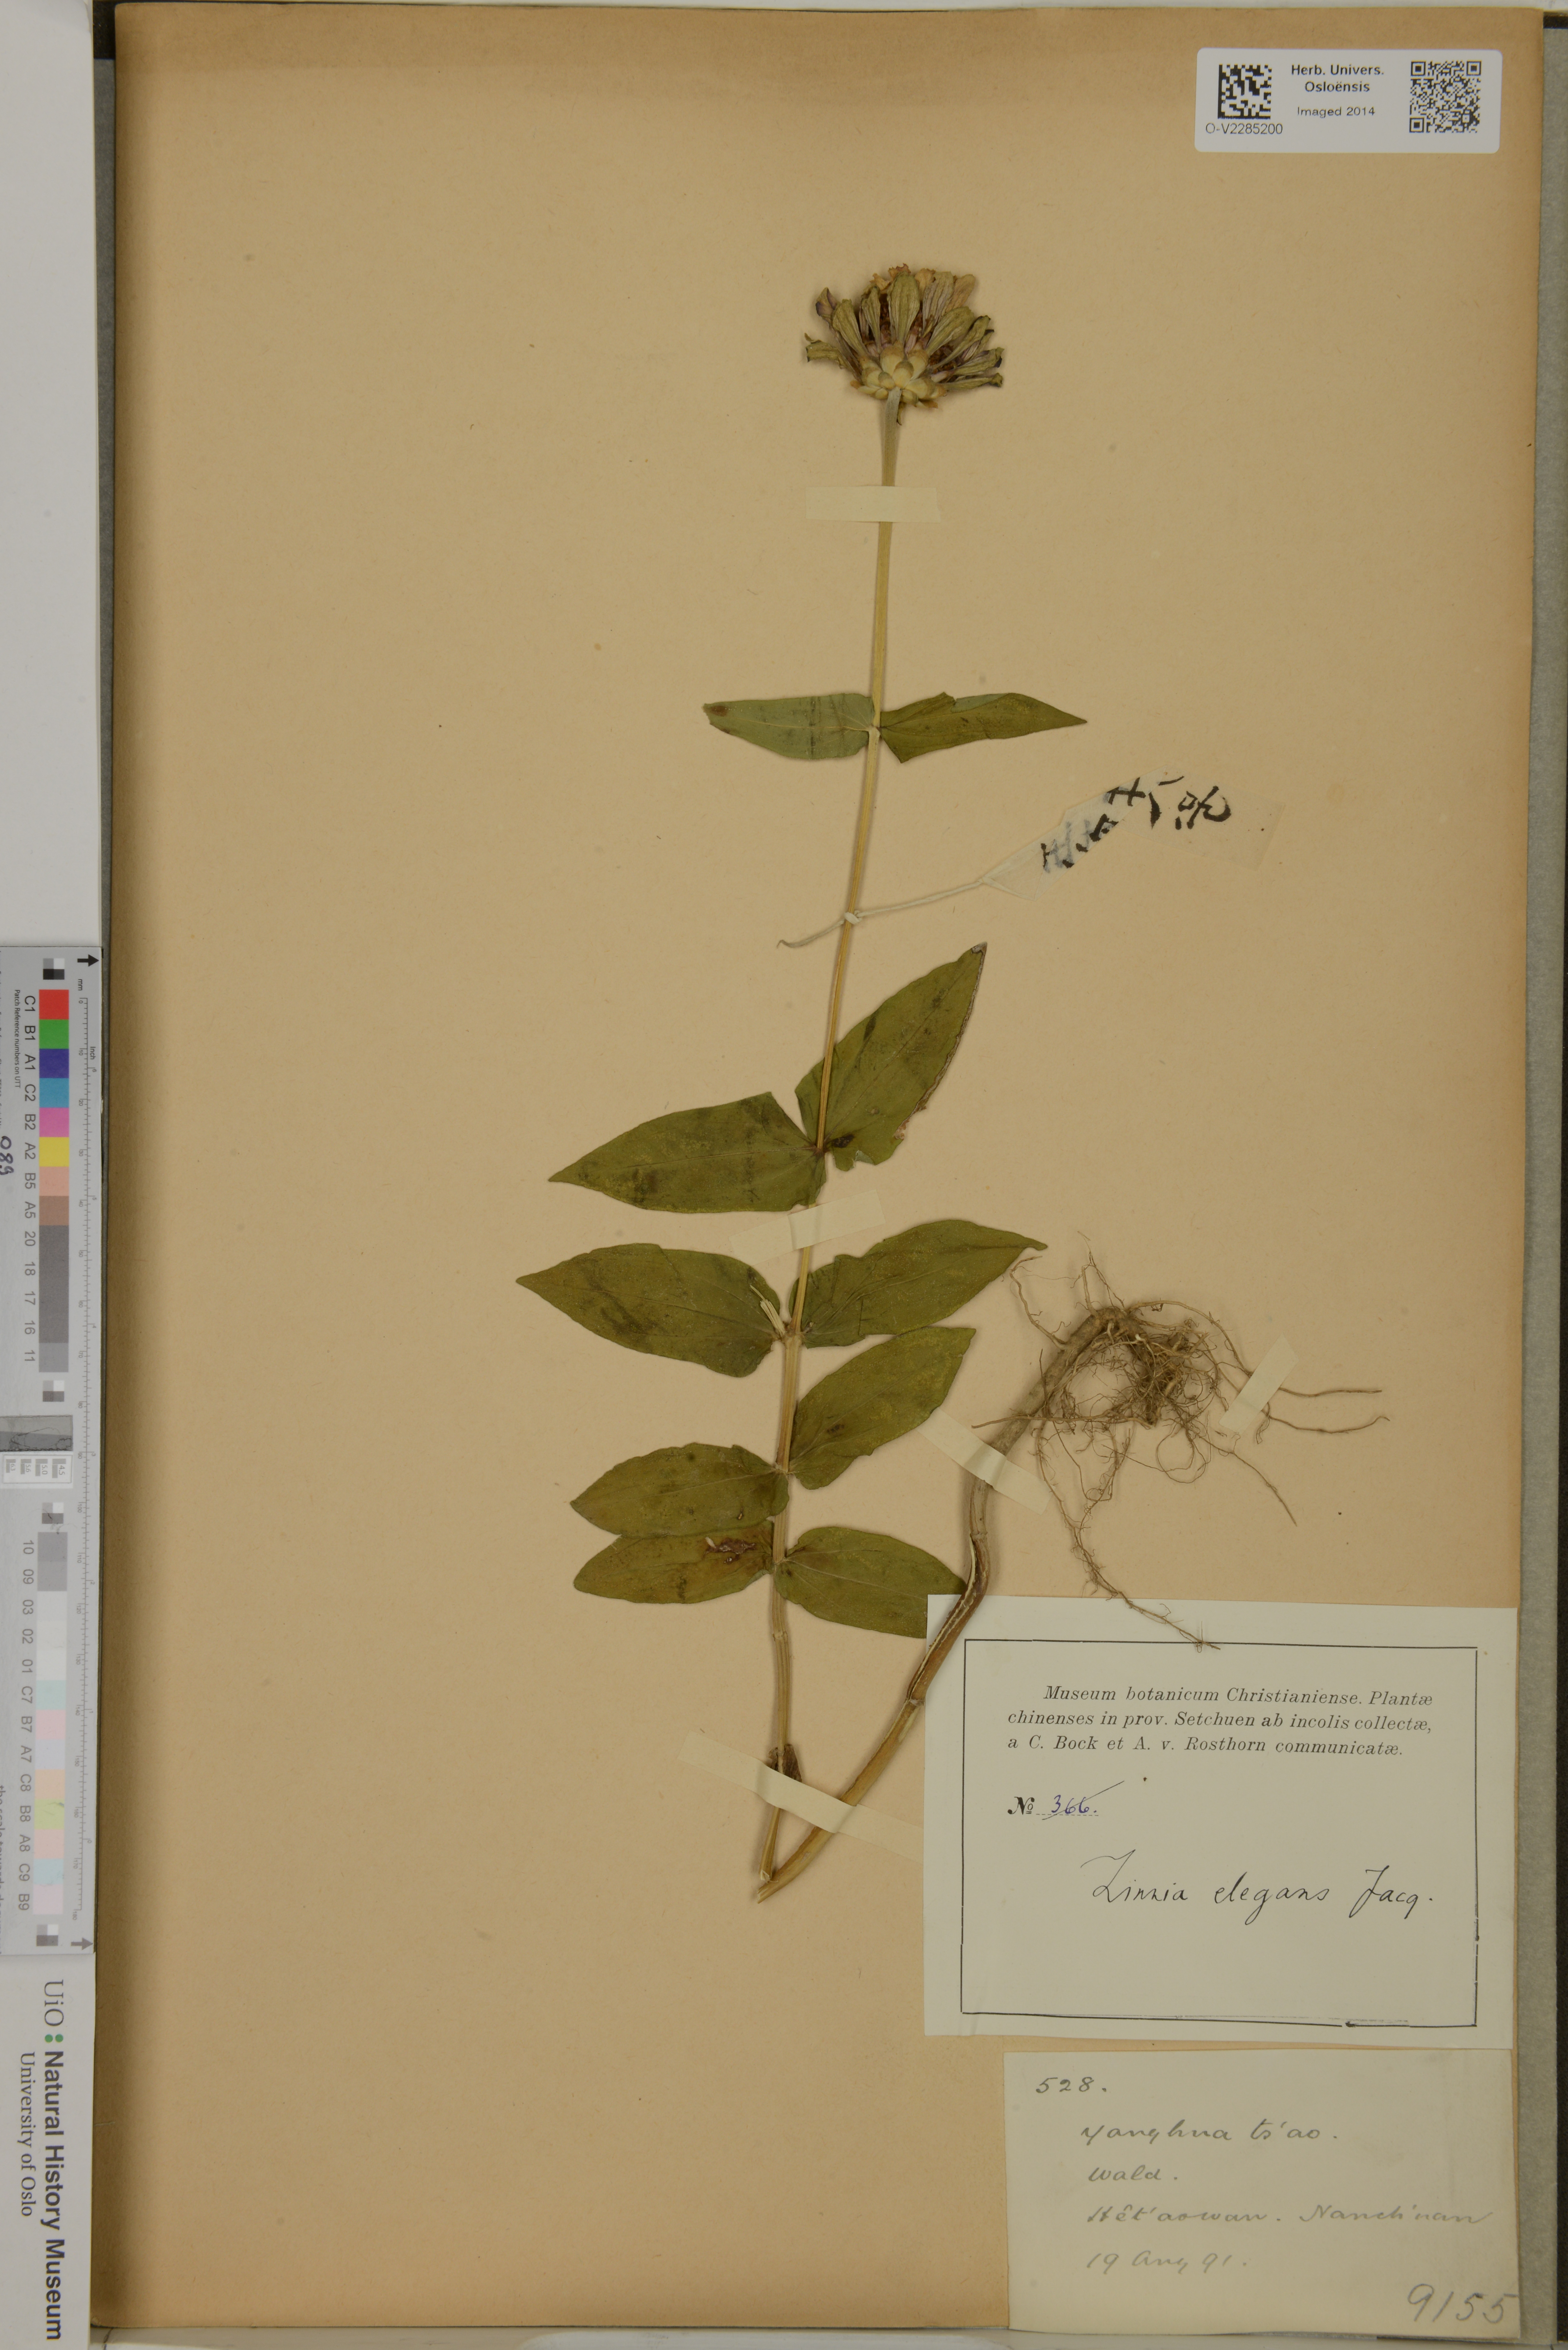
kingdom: Plantae
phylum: Tracheophyta
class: Magnoliopsida
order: Asterales
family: Asteraceae
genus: Zinnia
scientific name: Zinnia elegans
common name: Youth-and-age
